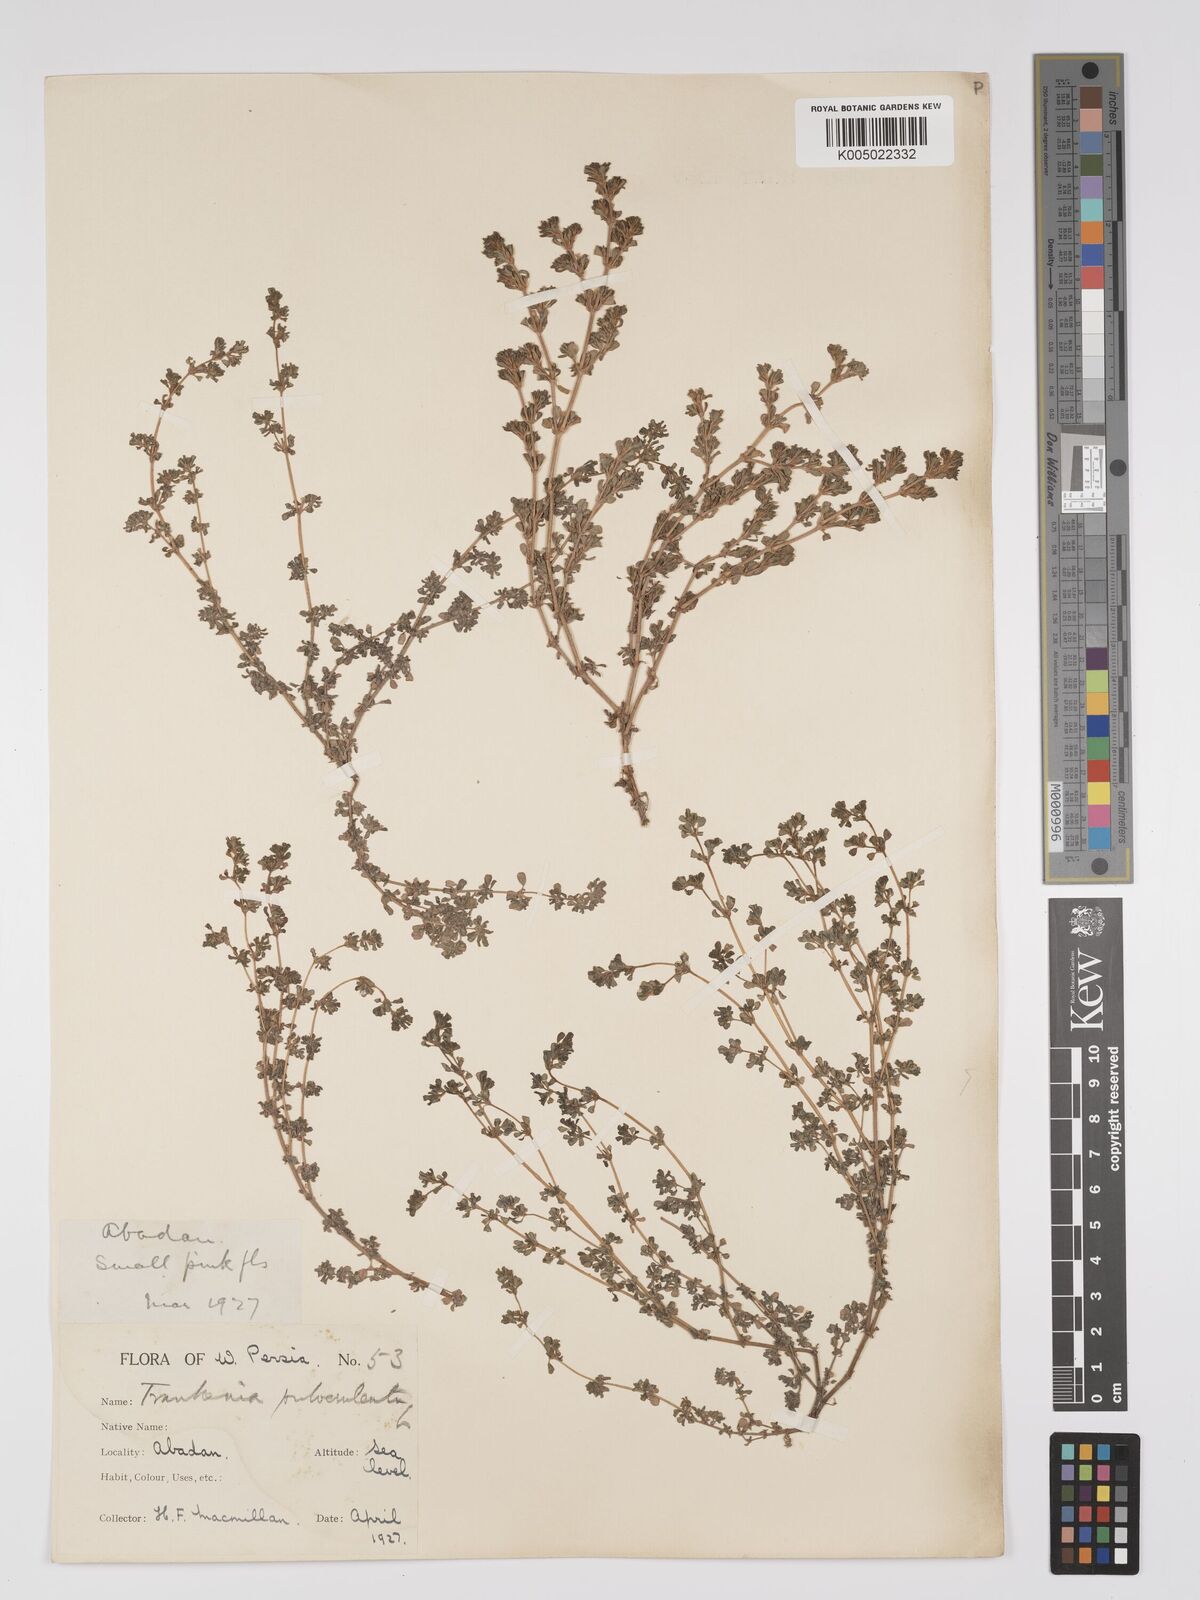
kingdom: Plantae
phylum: Tracheophyta
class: Magnoliopsida
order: Caryophyllales
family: Frankeniaceae
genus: Frankenia
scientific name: Frankenia pulverulenta
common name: European seaheath
